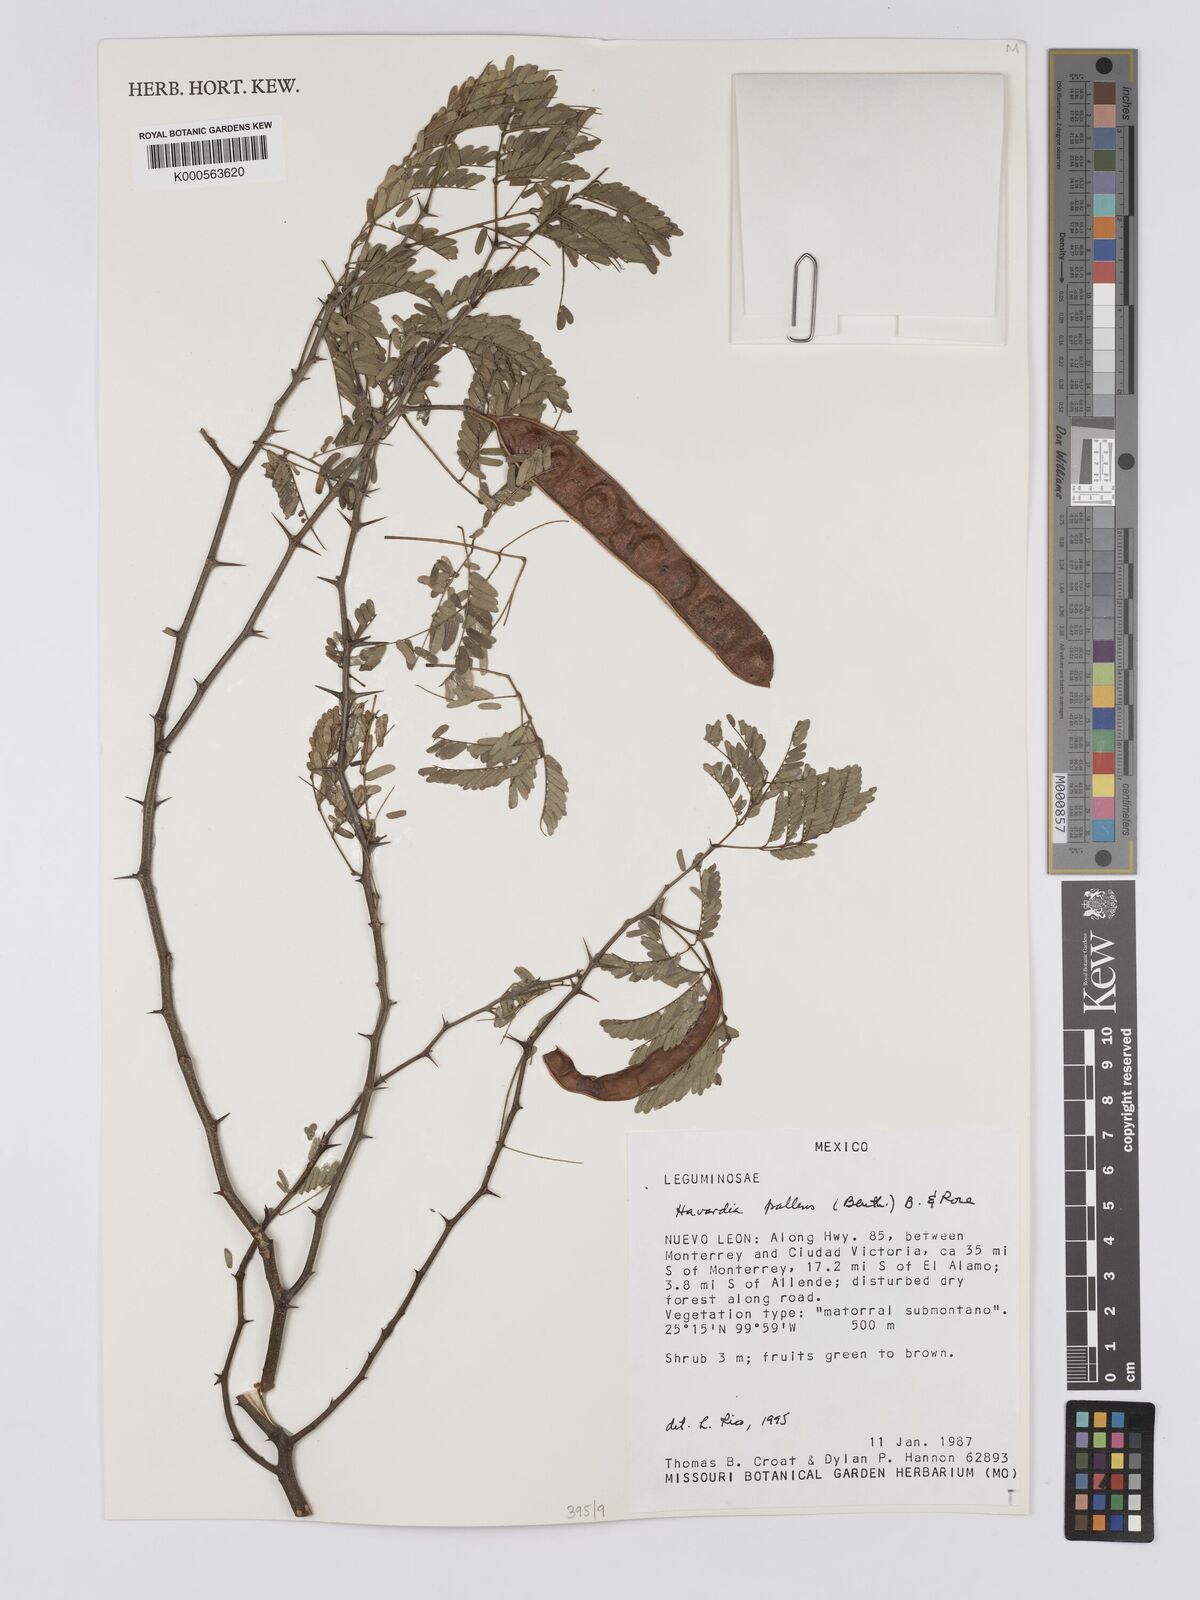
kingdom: Plantae
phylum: Tracheophyta
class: Magnoliopsida
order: Fabales
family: Fabaceae
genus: Havardia
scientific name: Havardia pallens
